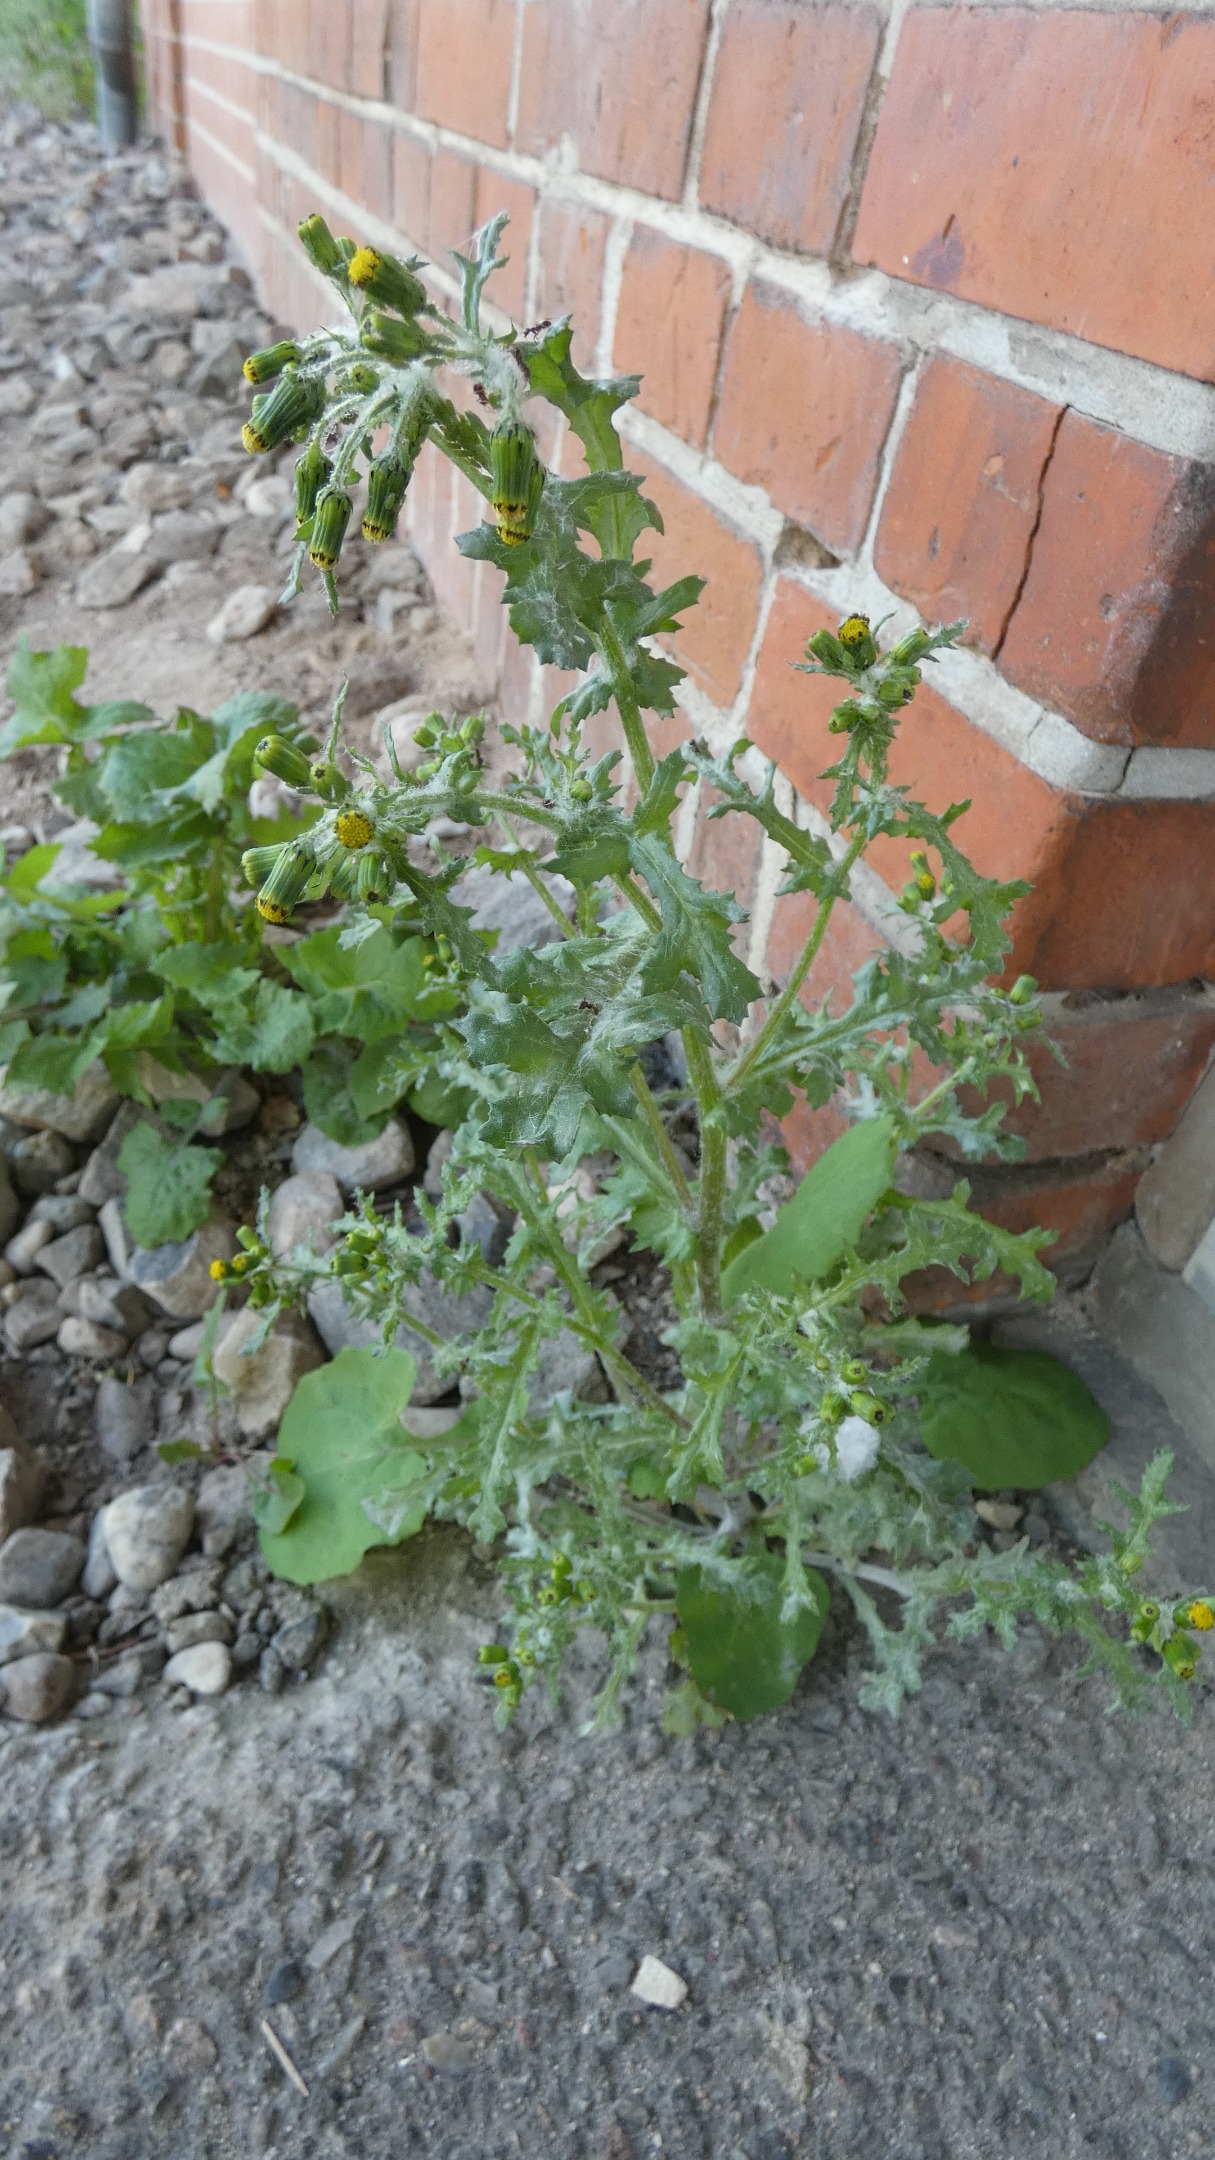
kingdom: Plantae
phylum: Tracheophyta
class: Magnoliopsida
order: Asterales
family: Asteraceae
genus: Senecio
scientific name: Senecio vulgaris
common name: Almindelig brandbæger
